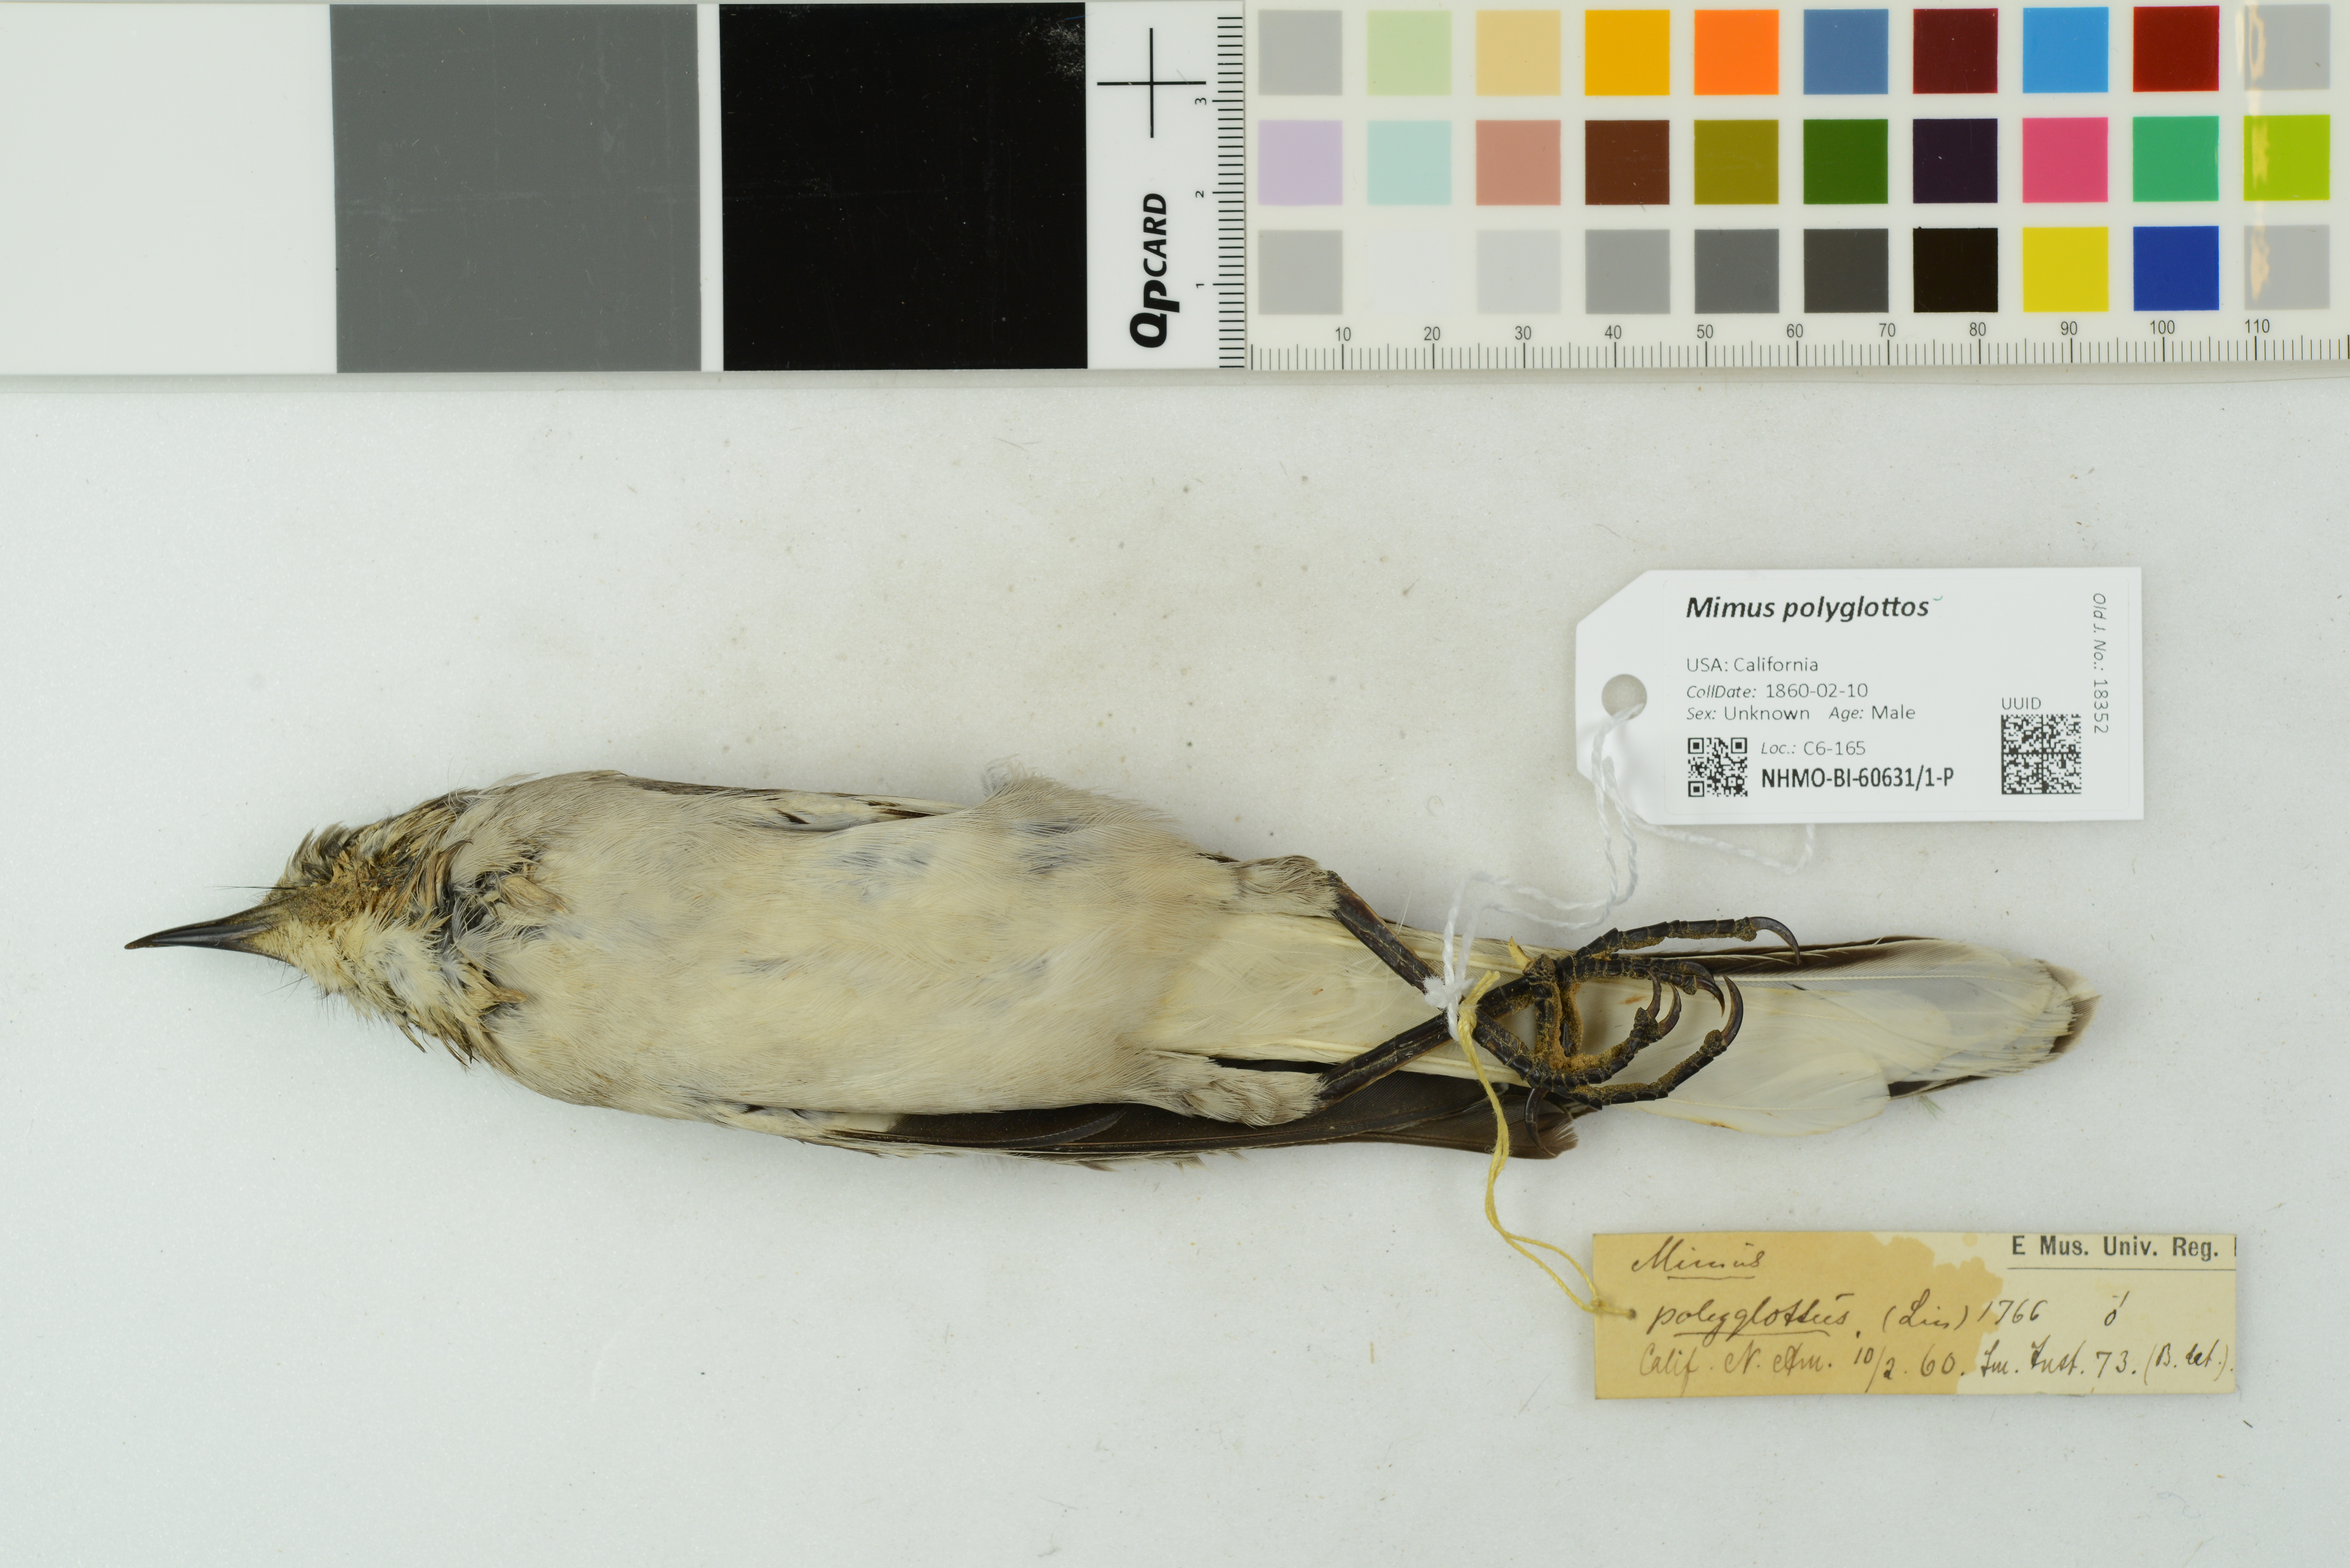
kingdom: Animalia
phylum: Chordata
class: Aves
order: Passeriformes
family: Mimidae
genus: Mimus
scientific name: Mimus polyglottos
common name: Northern mockingbird
